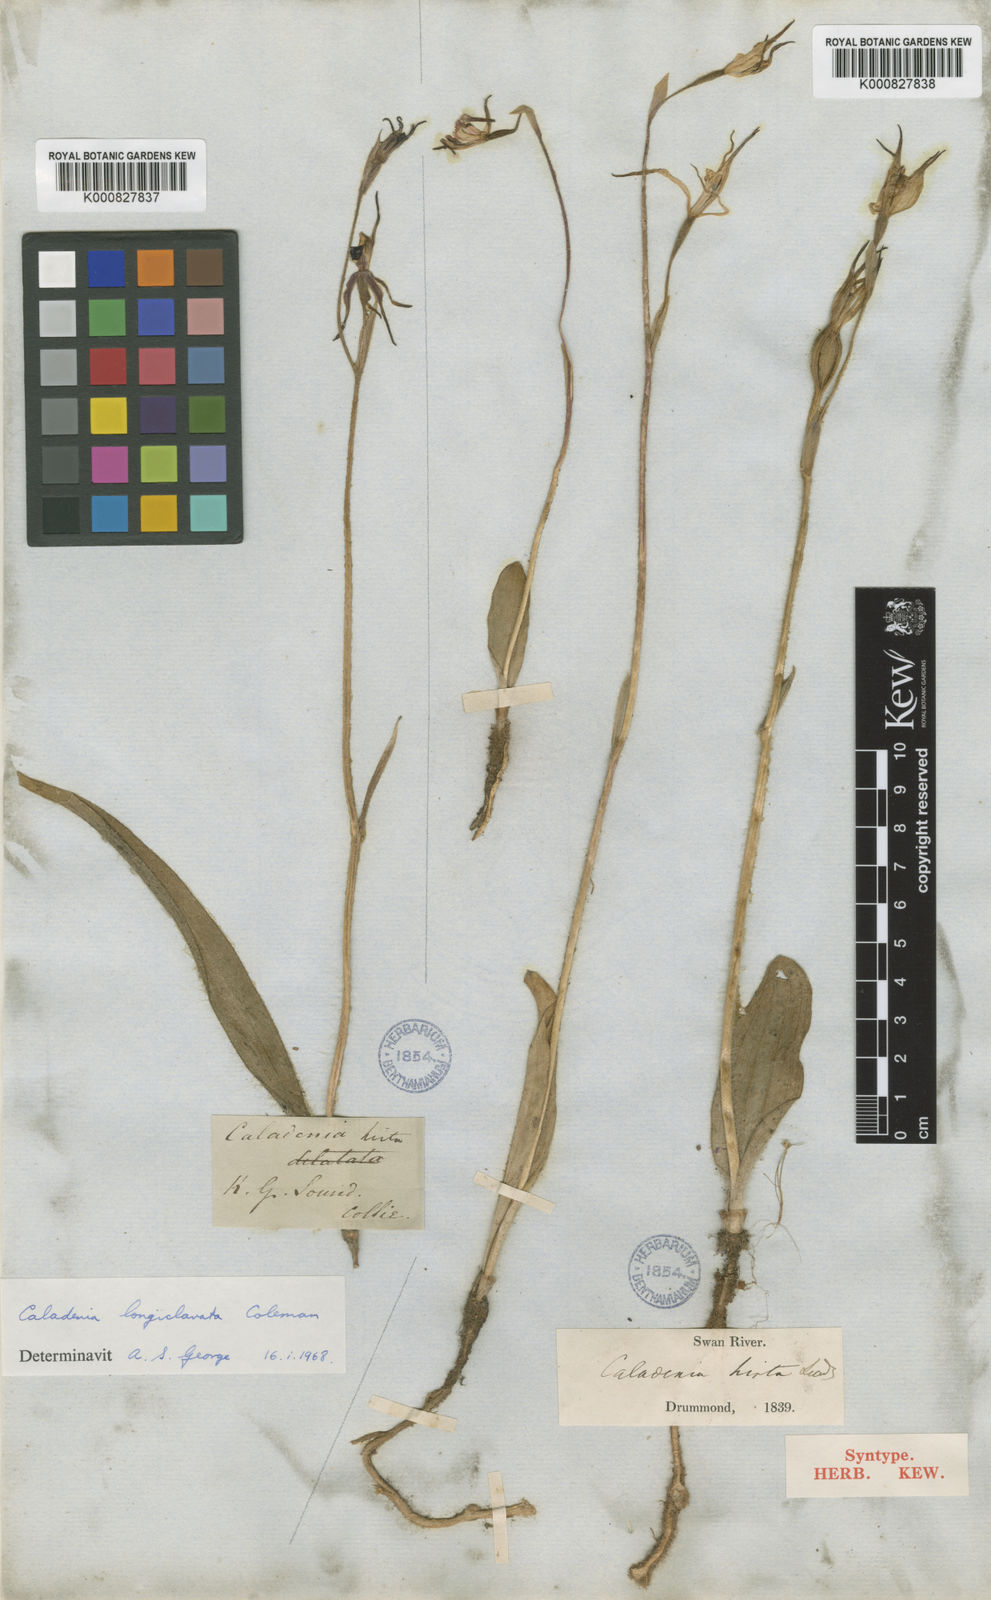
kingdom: Plantae
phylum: Tracheophyta
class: Liliopsida
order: Asparagales
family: Orchidaceae
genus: Caladenia
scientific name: Caladenia hirta
